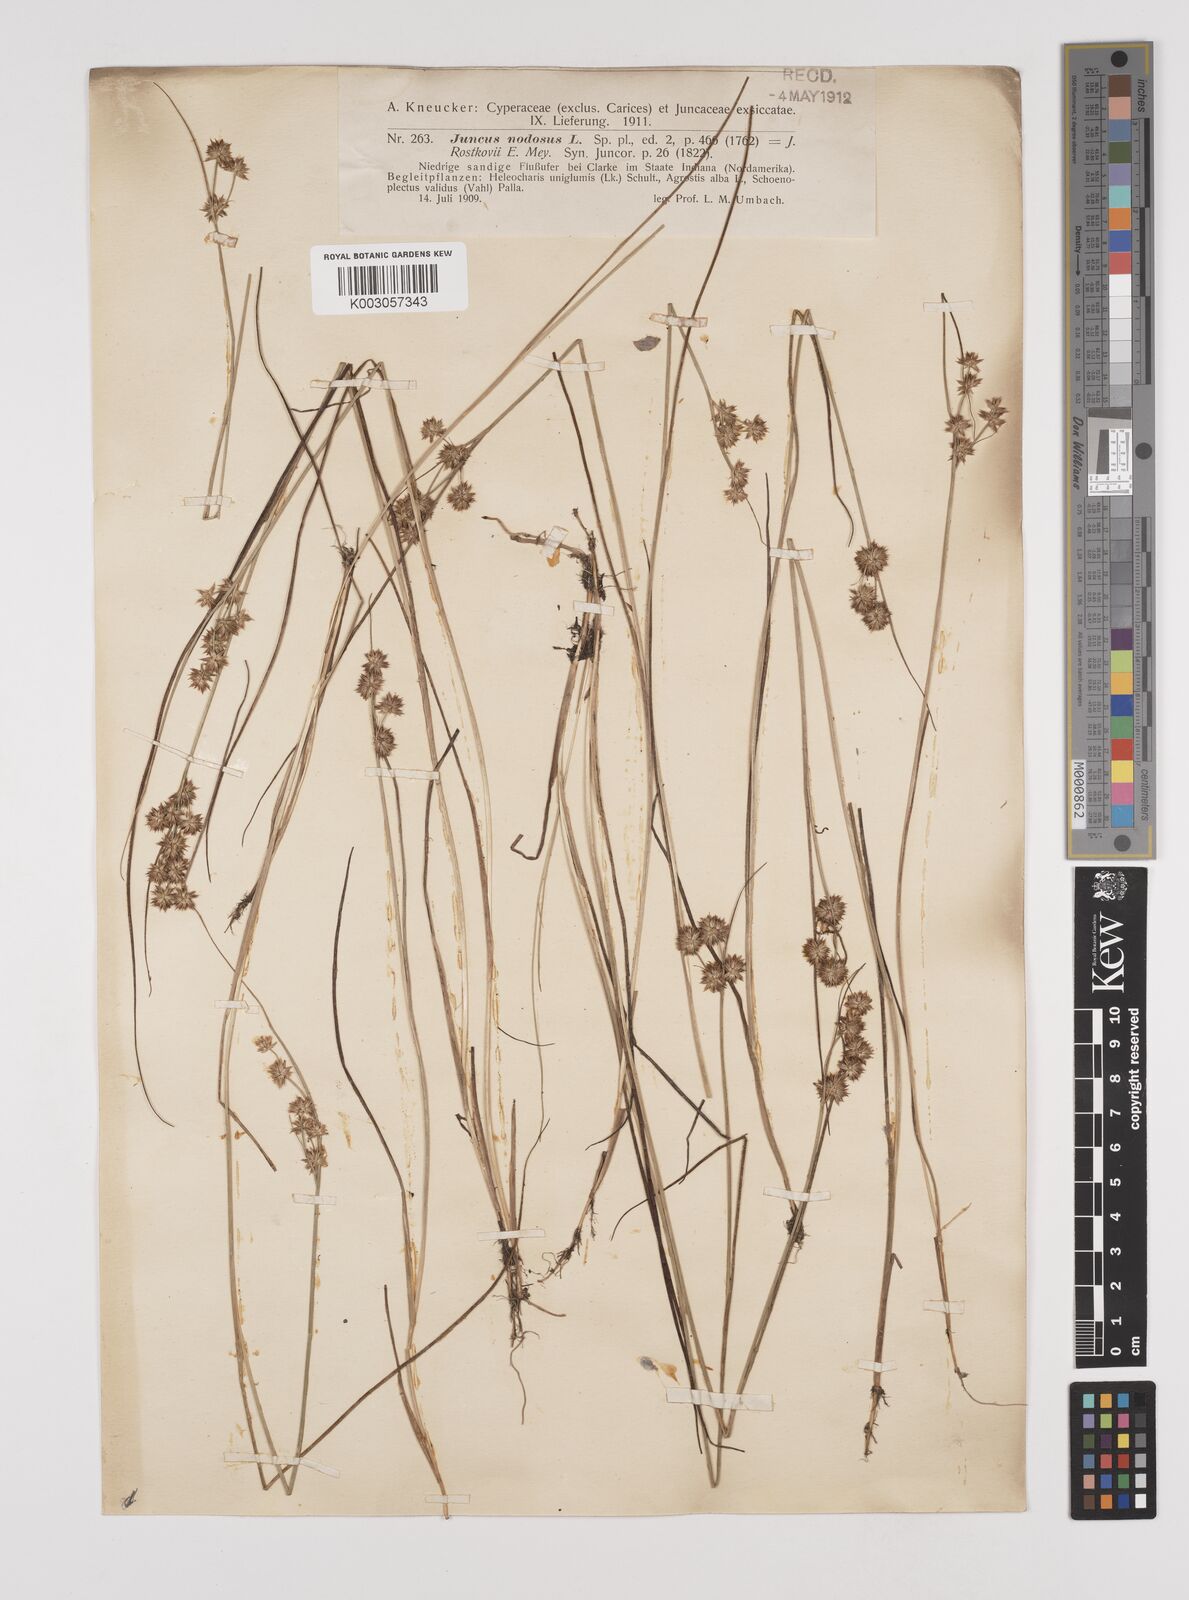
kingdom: Plantae
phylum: Tracheophyta
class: Liliopsida
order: Poales
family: Juncaceae
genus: Juncus
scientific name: Juncus nodosus
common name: Knotted rush
